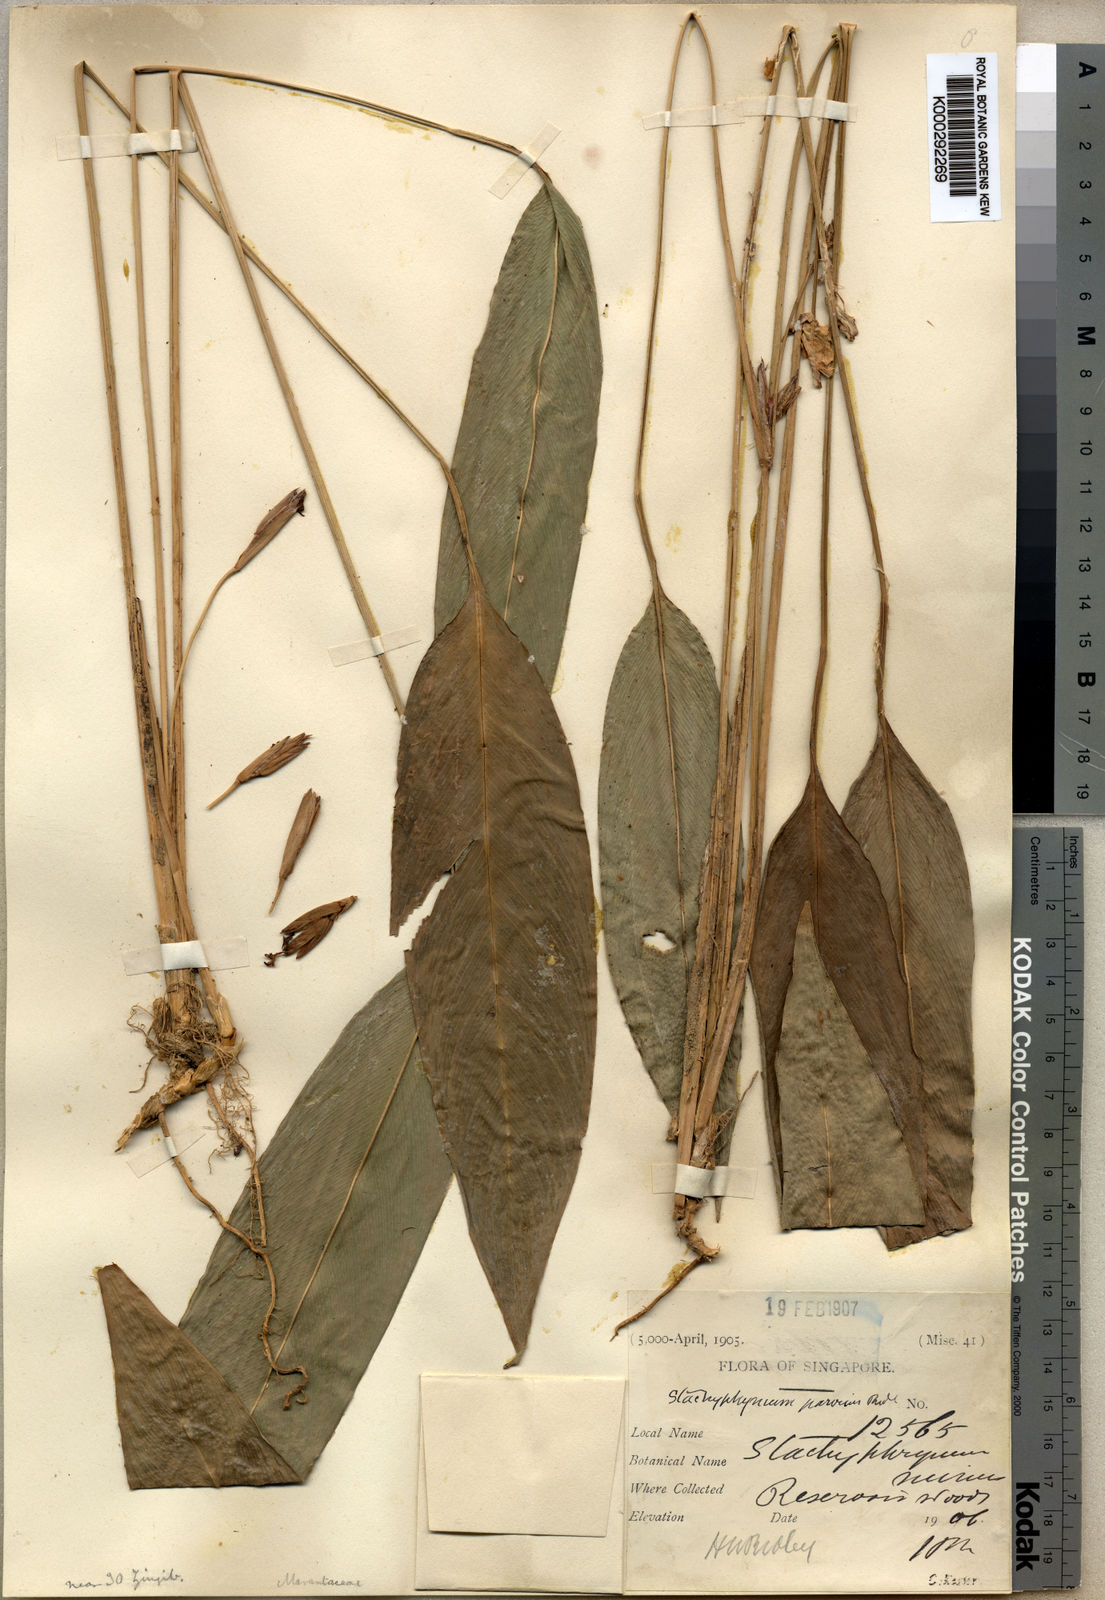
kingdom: Plantae
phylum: Tracheophyta
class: Liliopsida
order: Zingiberales
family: Marantaceae
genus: Phrynium
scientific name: Phrynium parvum
